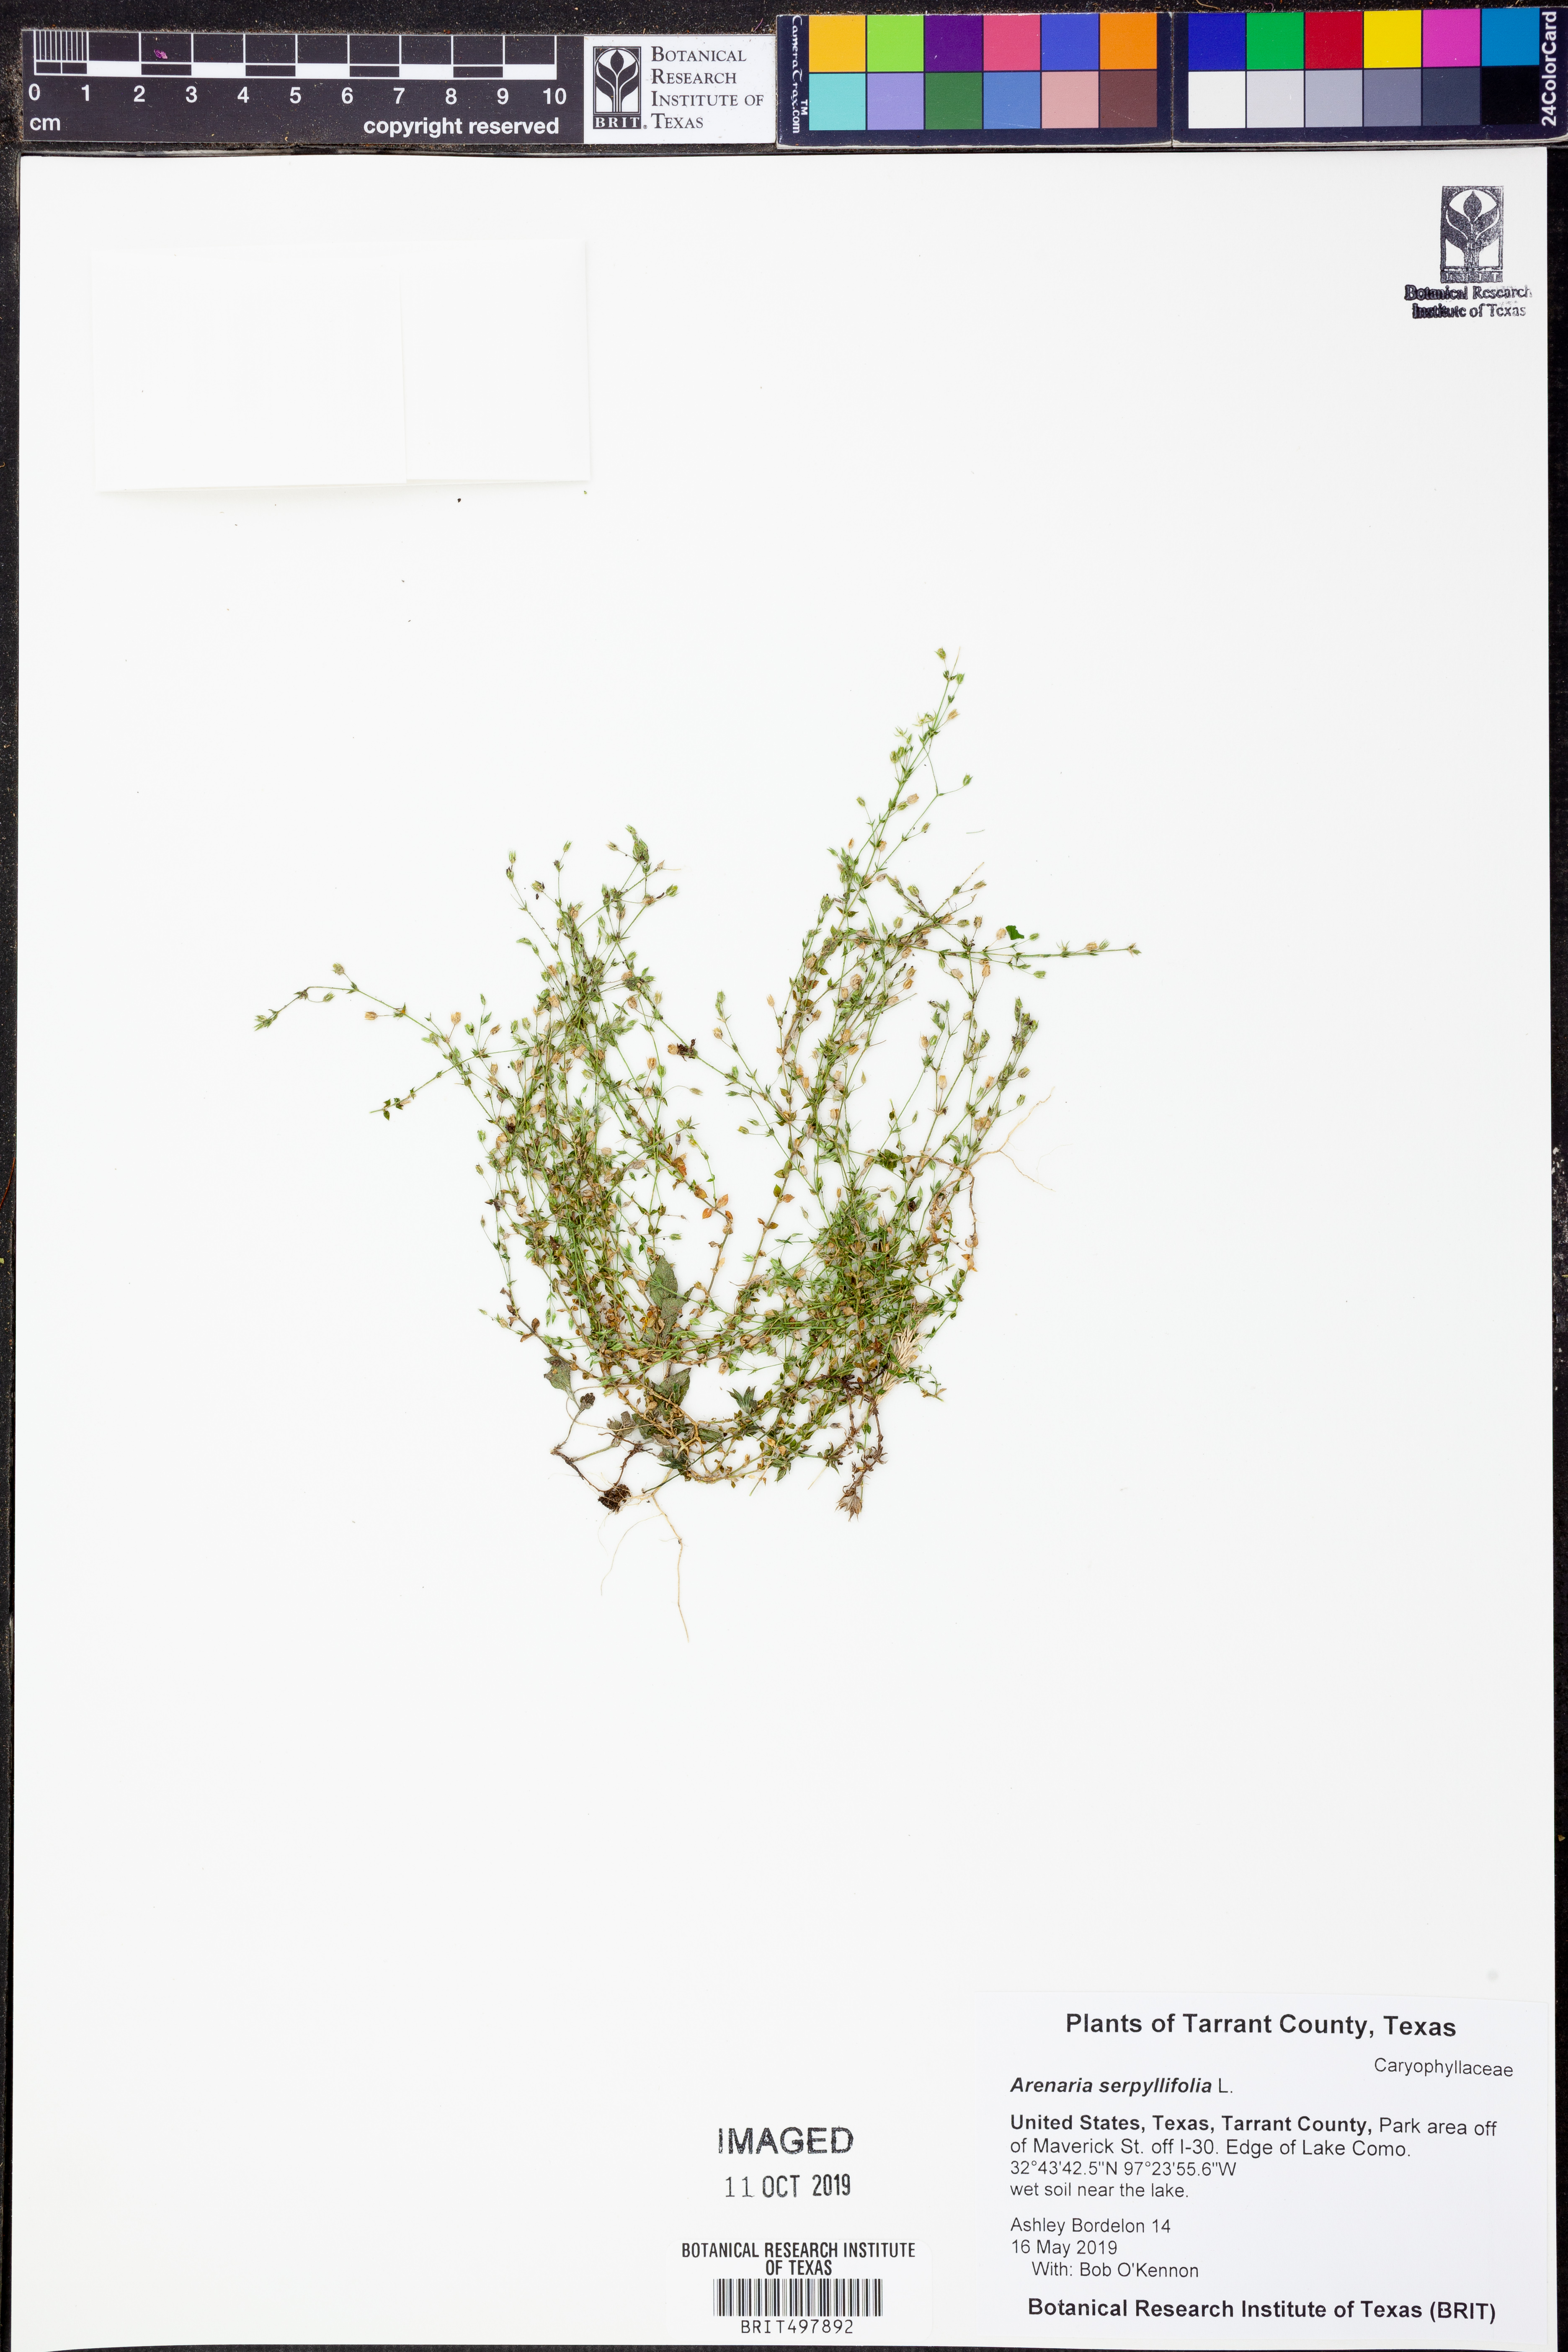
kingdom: Plantae
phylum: Tracheophyta
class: Magnoliopsida
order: Caryophyllales
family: Caryophyllaceae
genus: Arenaria
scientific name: Arenaria serpyllifolia
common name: Thyme-leaved sandwort
